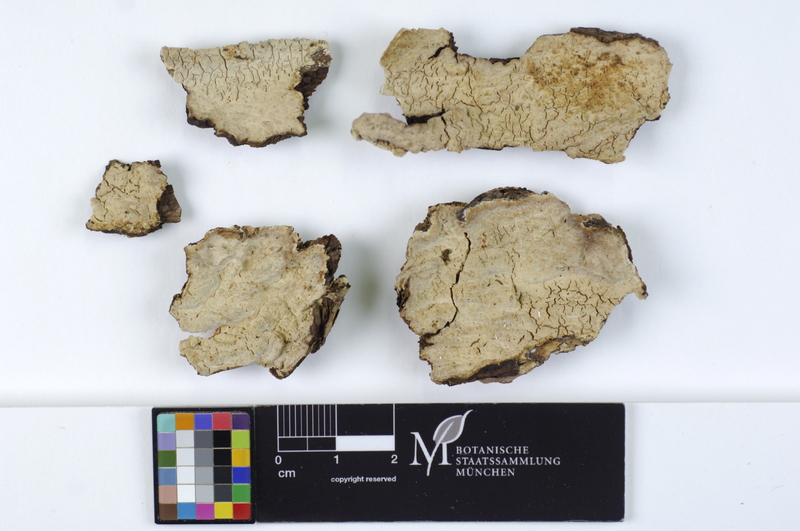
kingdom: Plantae
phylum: Tracheophyta
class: Pinopsida
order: Pinales
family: Pinaceae
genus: Picea
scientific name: Picea
